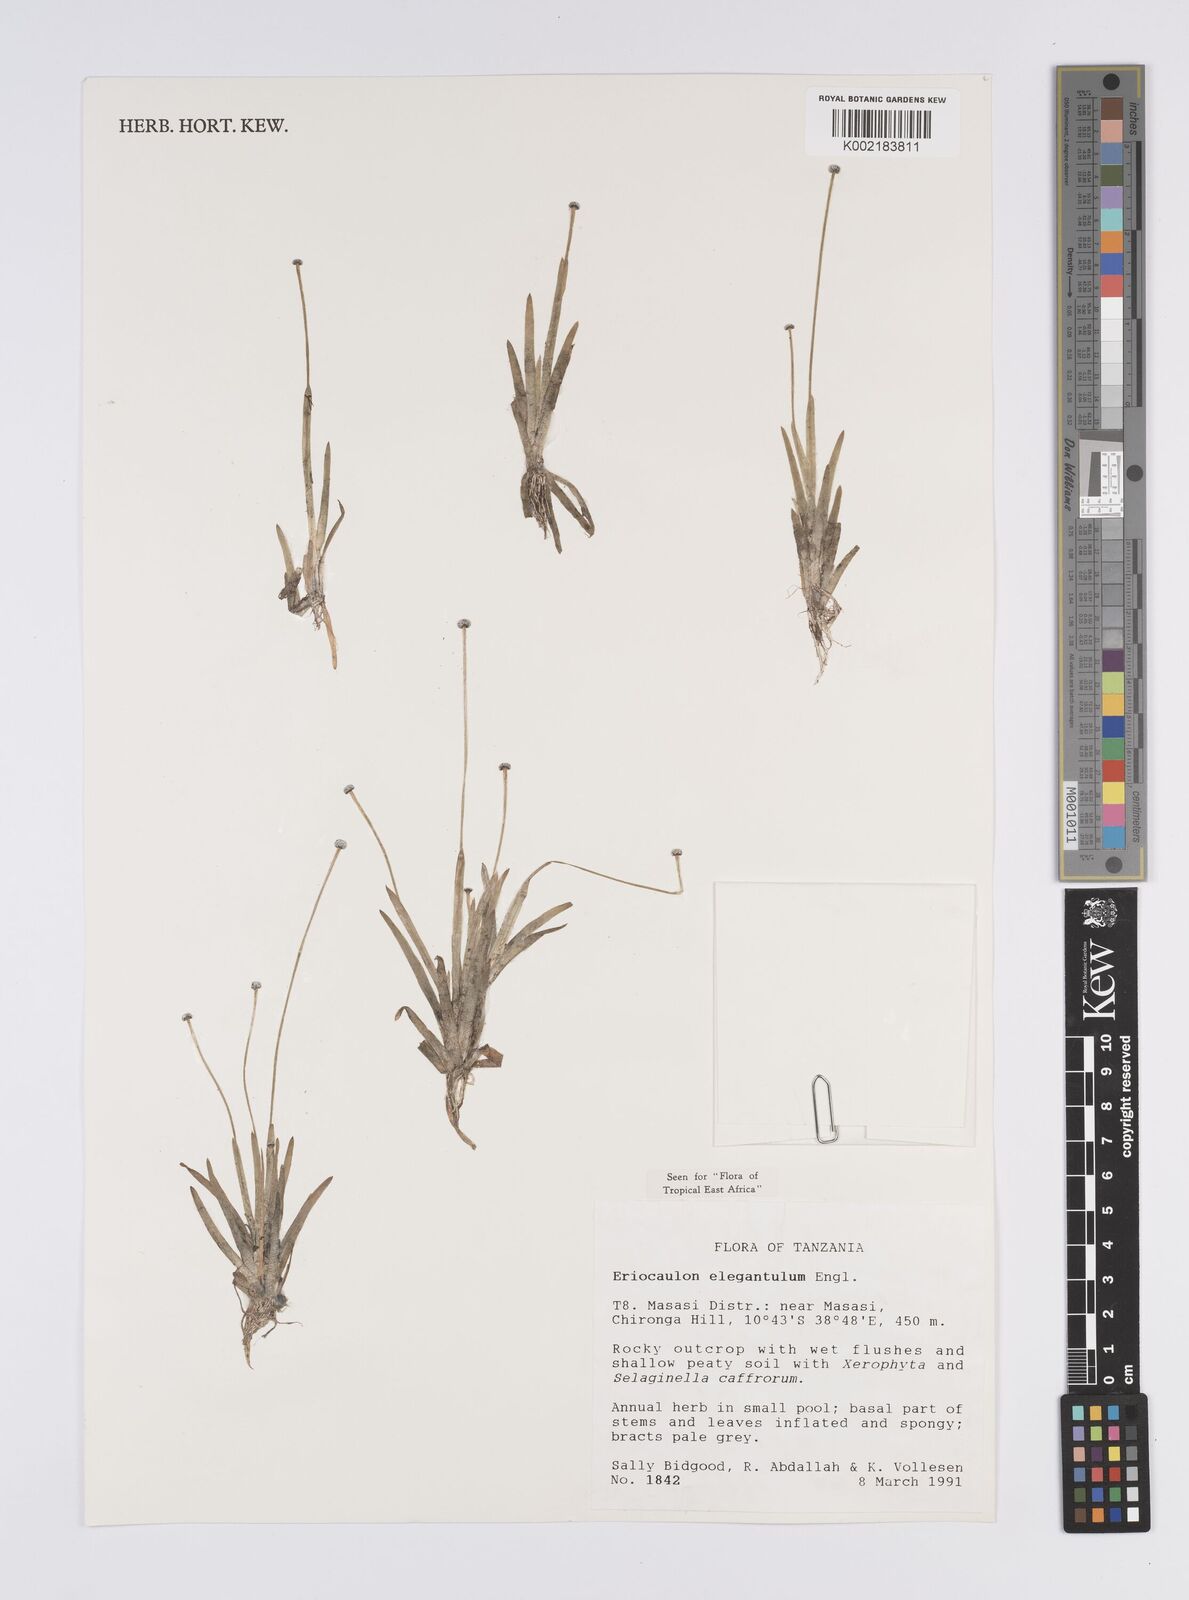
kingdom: Plantae
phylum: Tracheophyta
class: Liliopsida
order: Poales
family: Eriocaulaceae
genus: Eriocaulon
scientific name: Eriocaulon elegantulum
